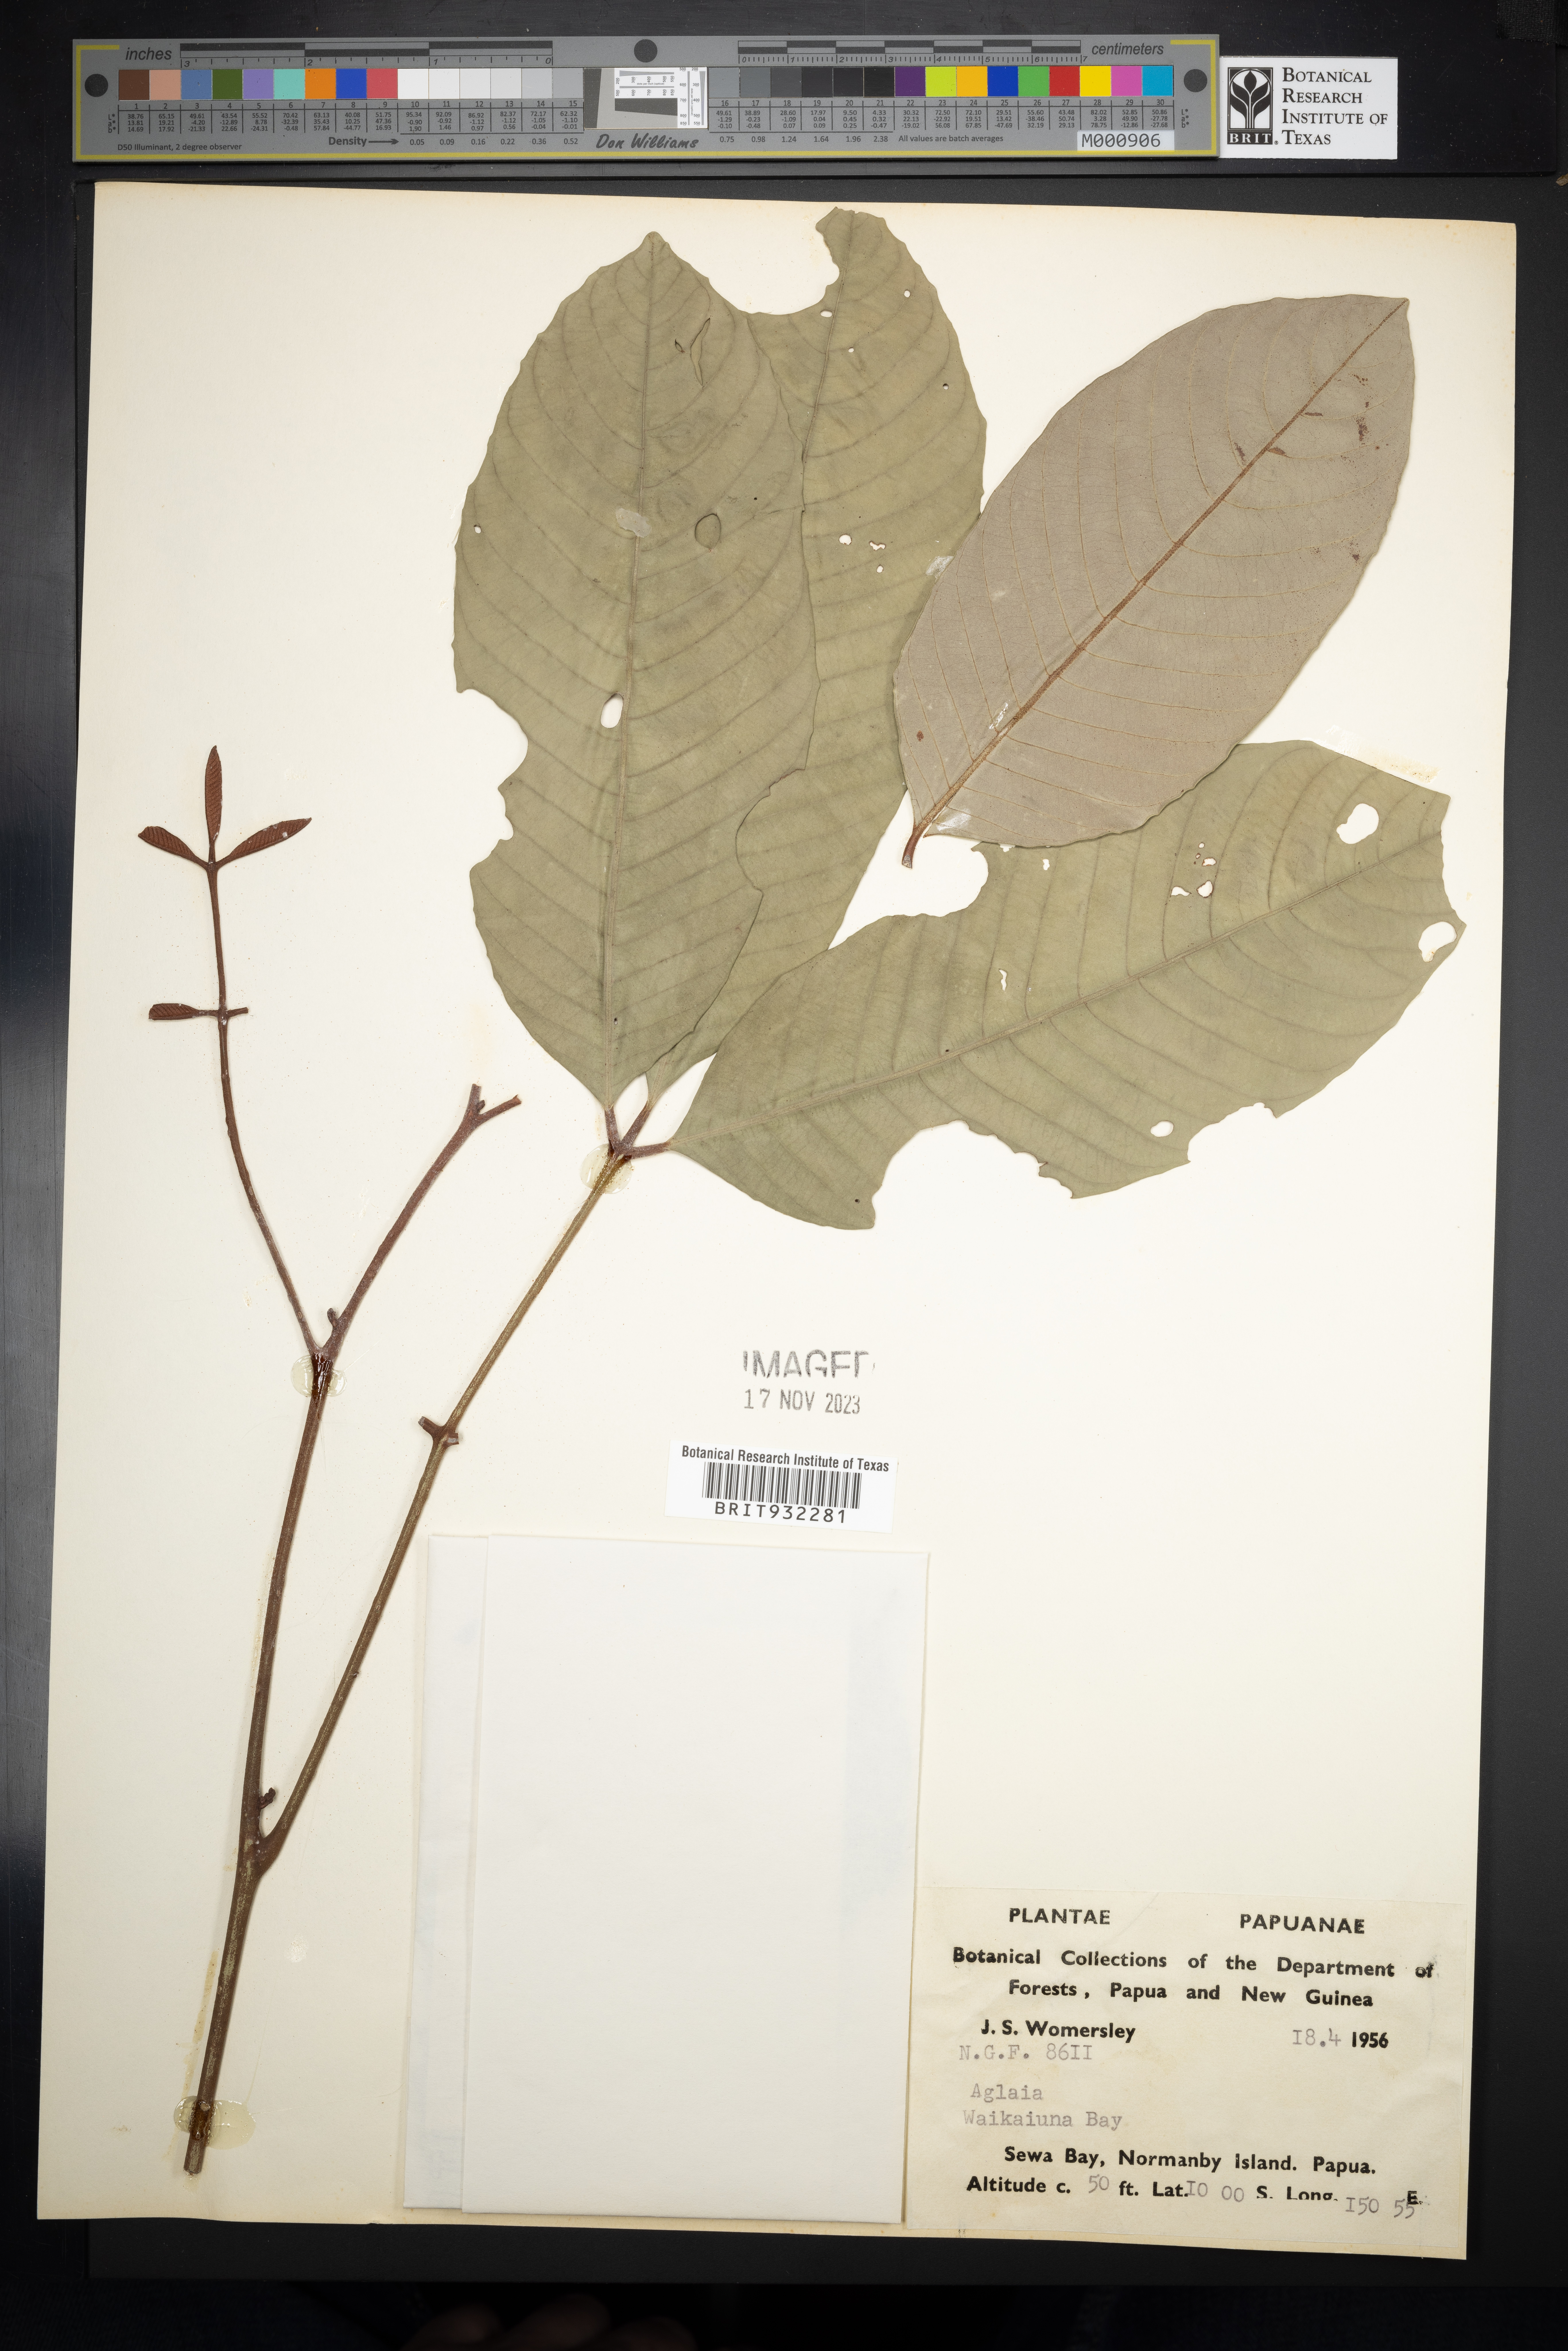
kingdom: Plantae
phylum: Tracheophyta
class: Magnoliopsida
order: Sapindales
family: Meliaceae
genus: Aglaia
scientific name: Aglaia
